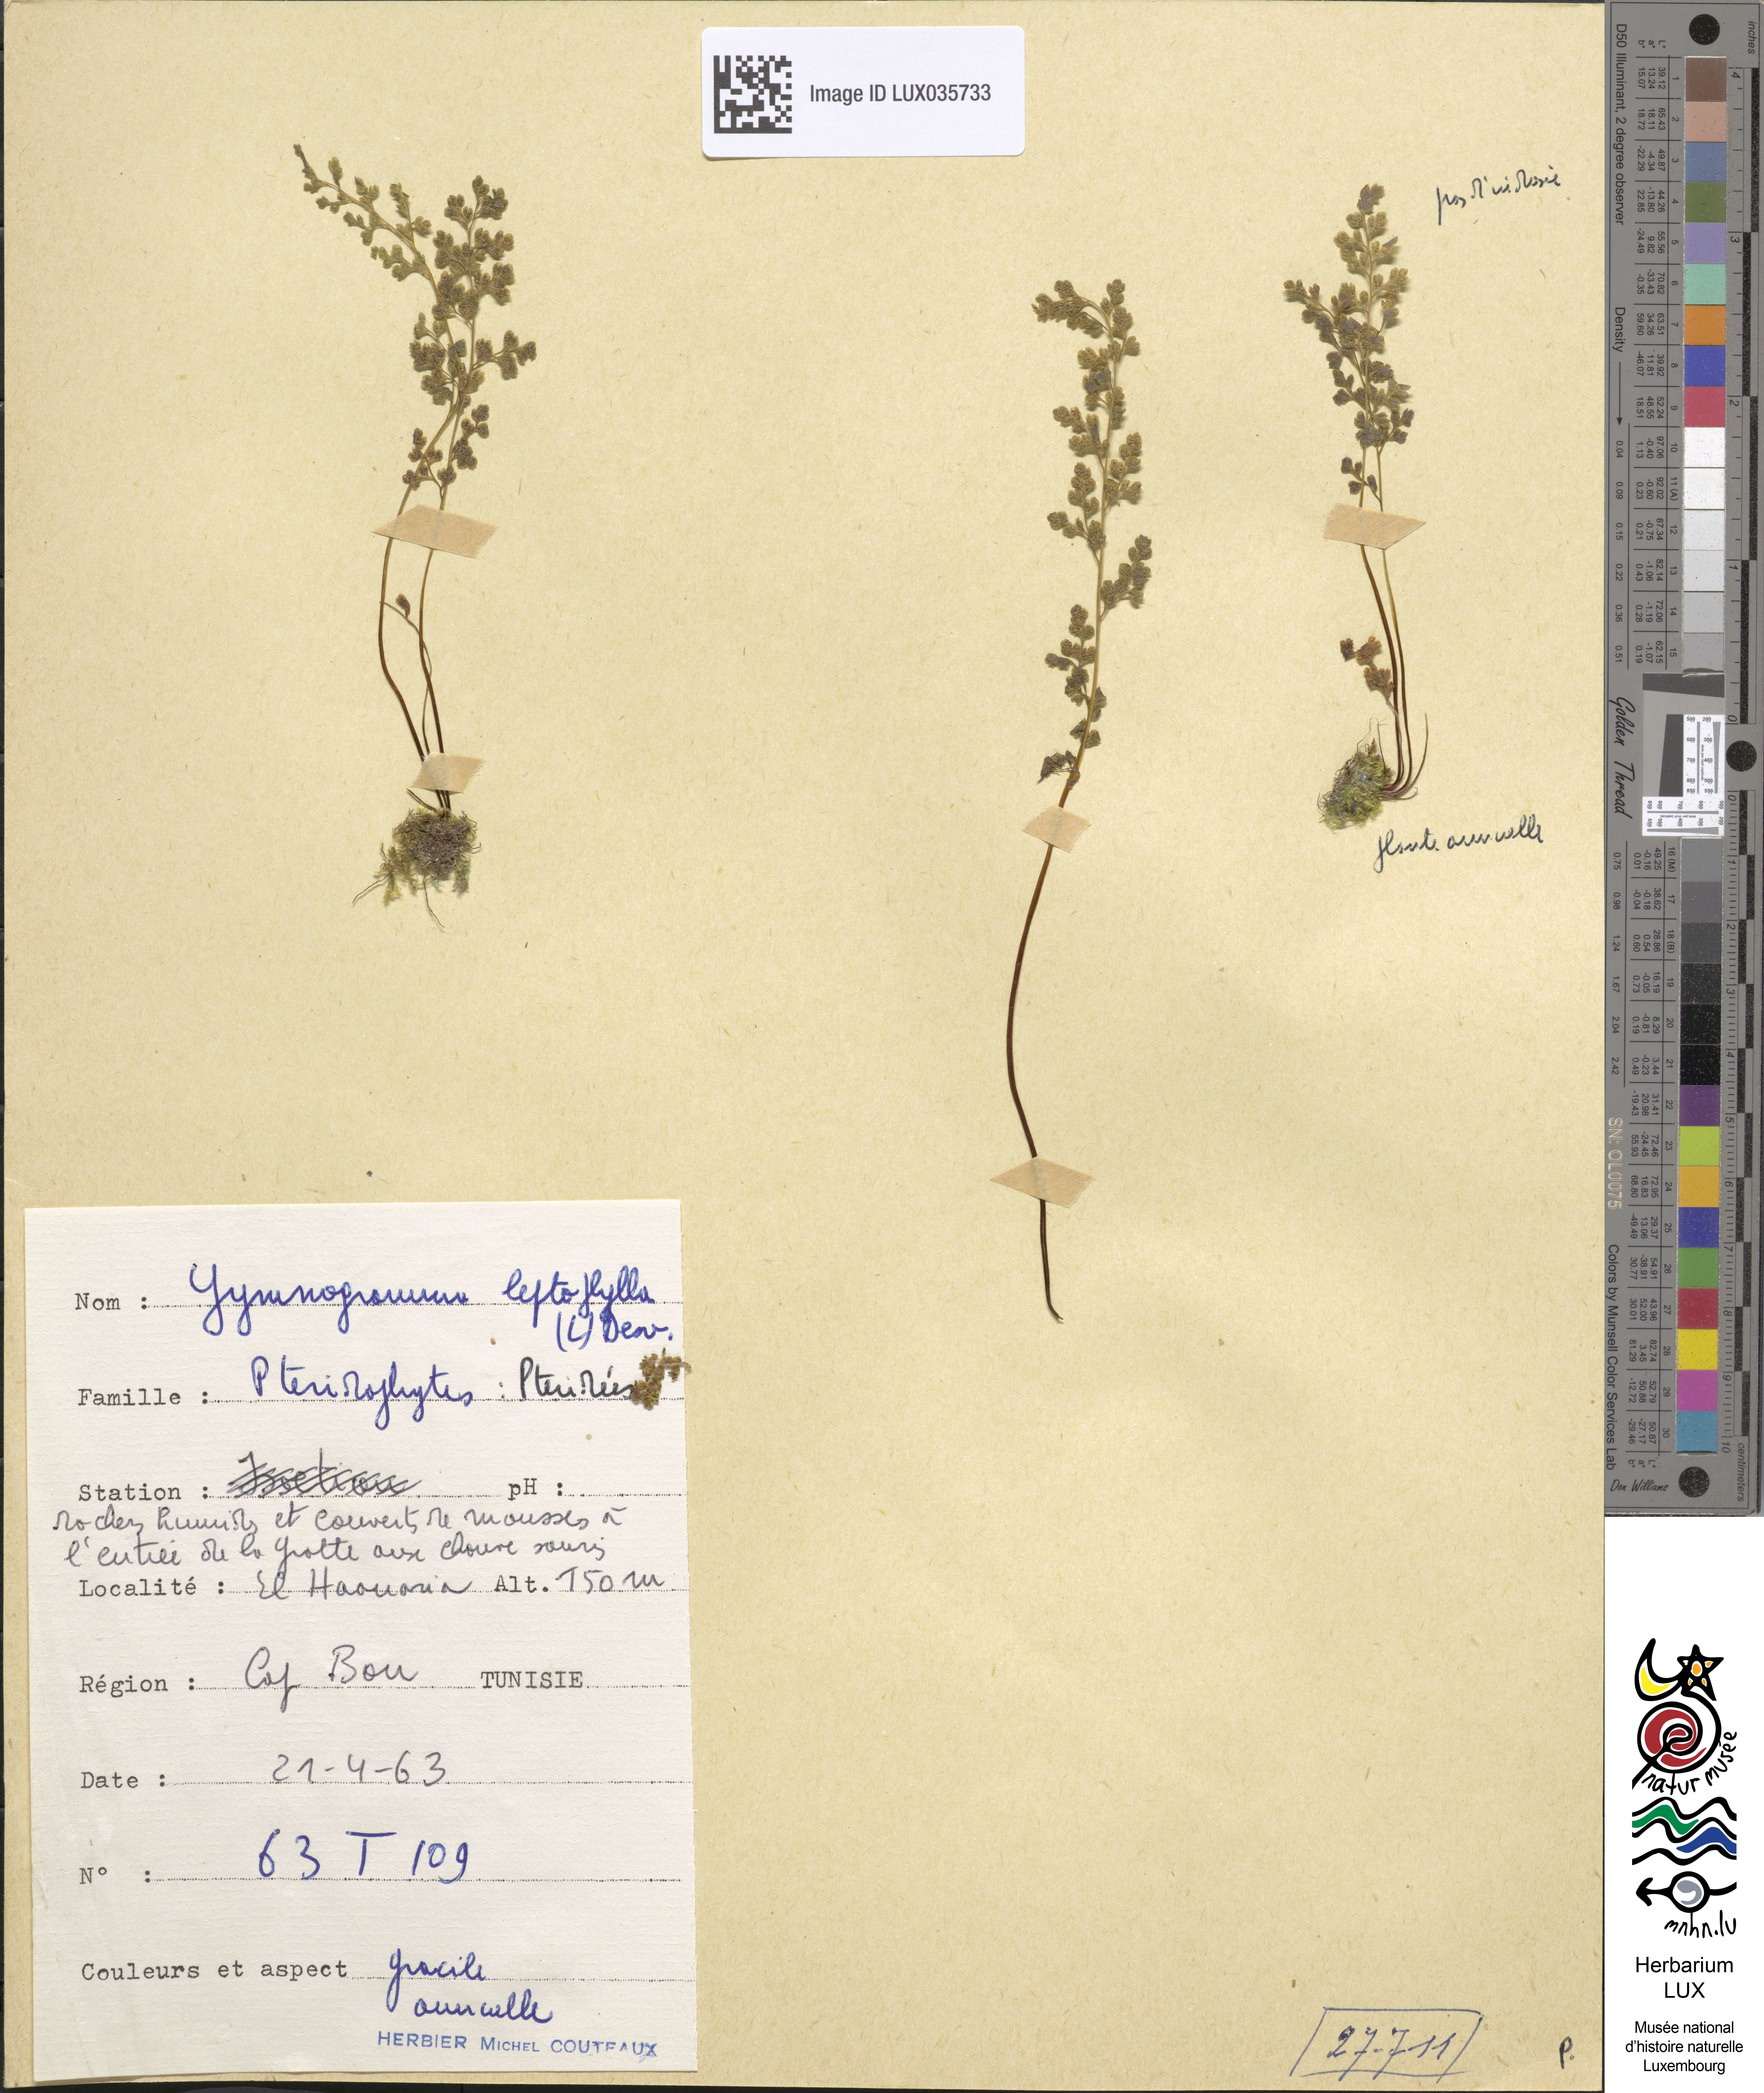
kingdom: Plantae
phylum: Tracheophyta
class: Polypodiopsida
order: Polypodiales
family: Pteridaceae
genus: Anogramma
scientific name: Anogramma leptophylla
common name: Jersey fern
